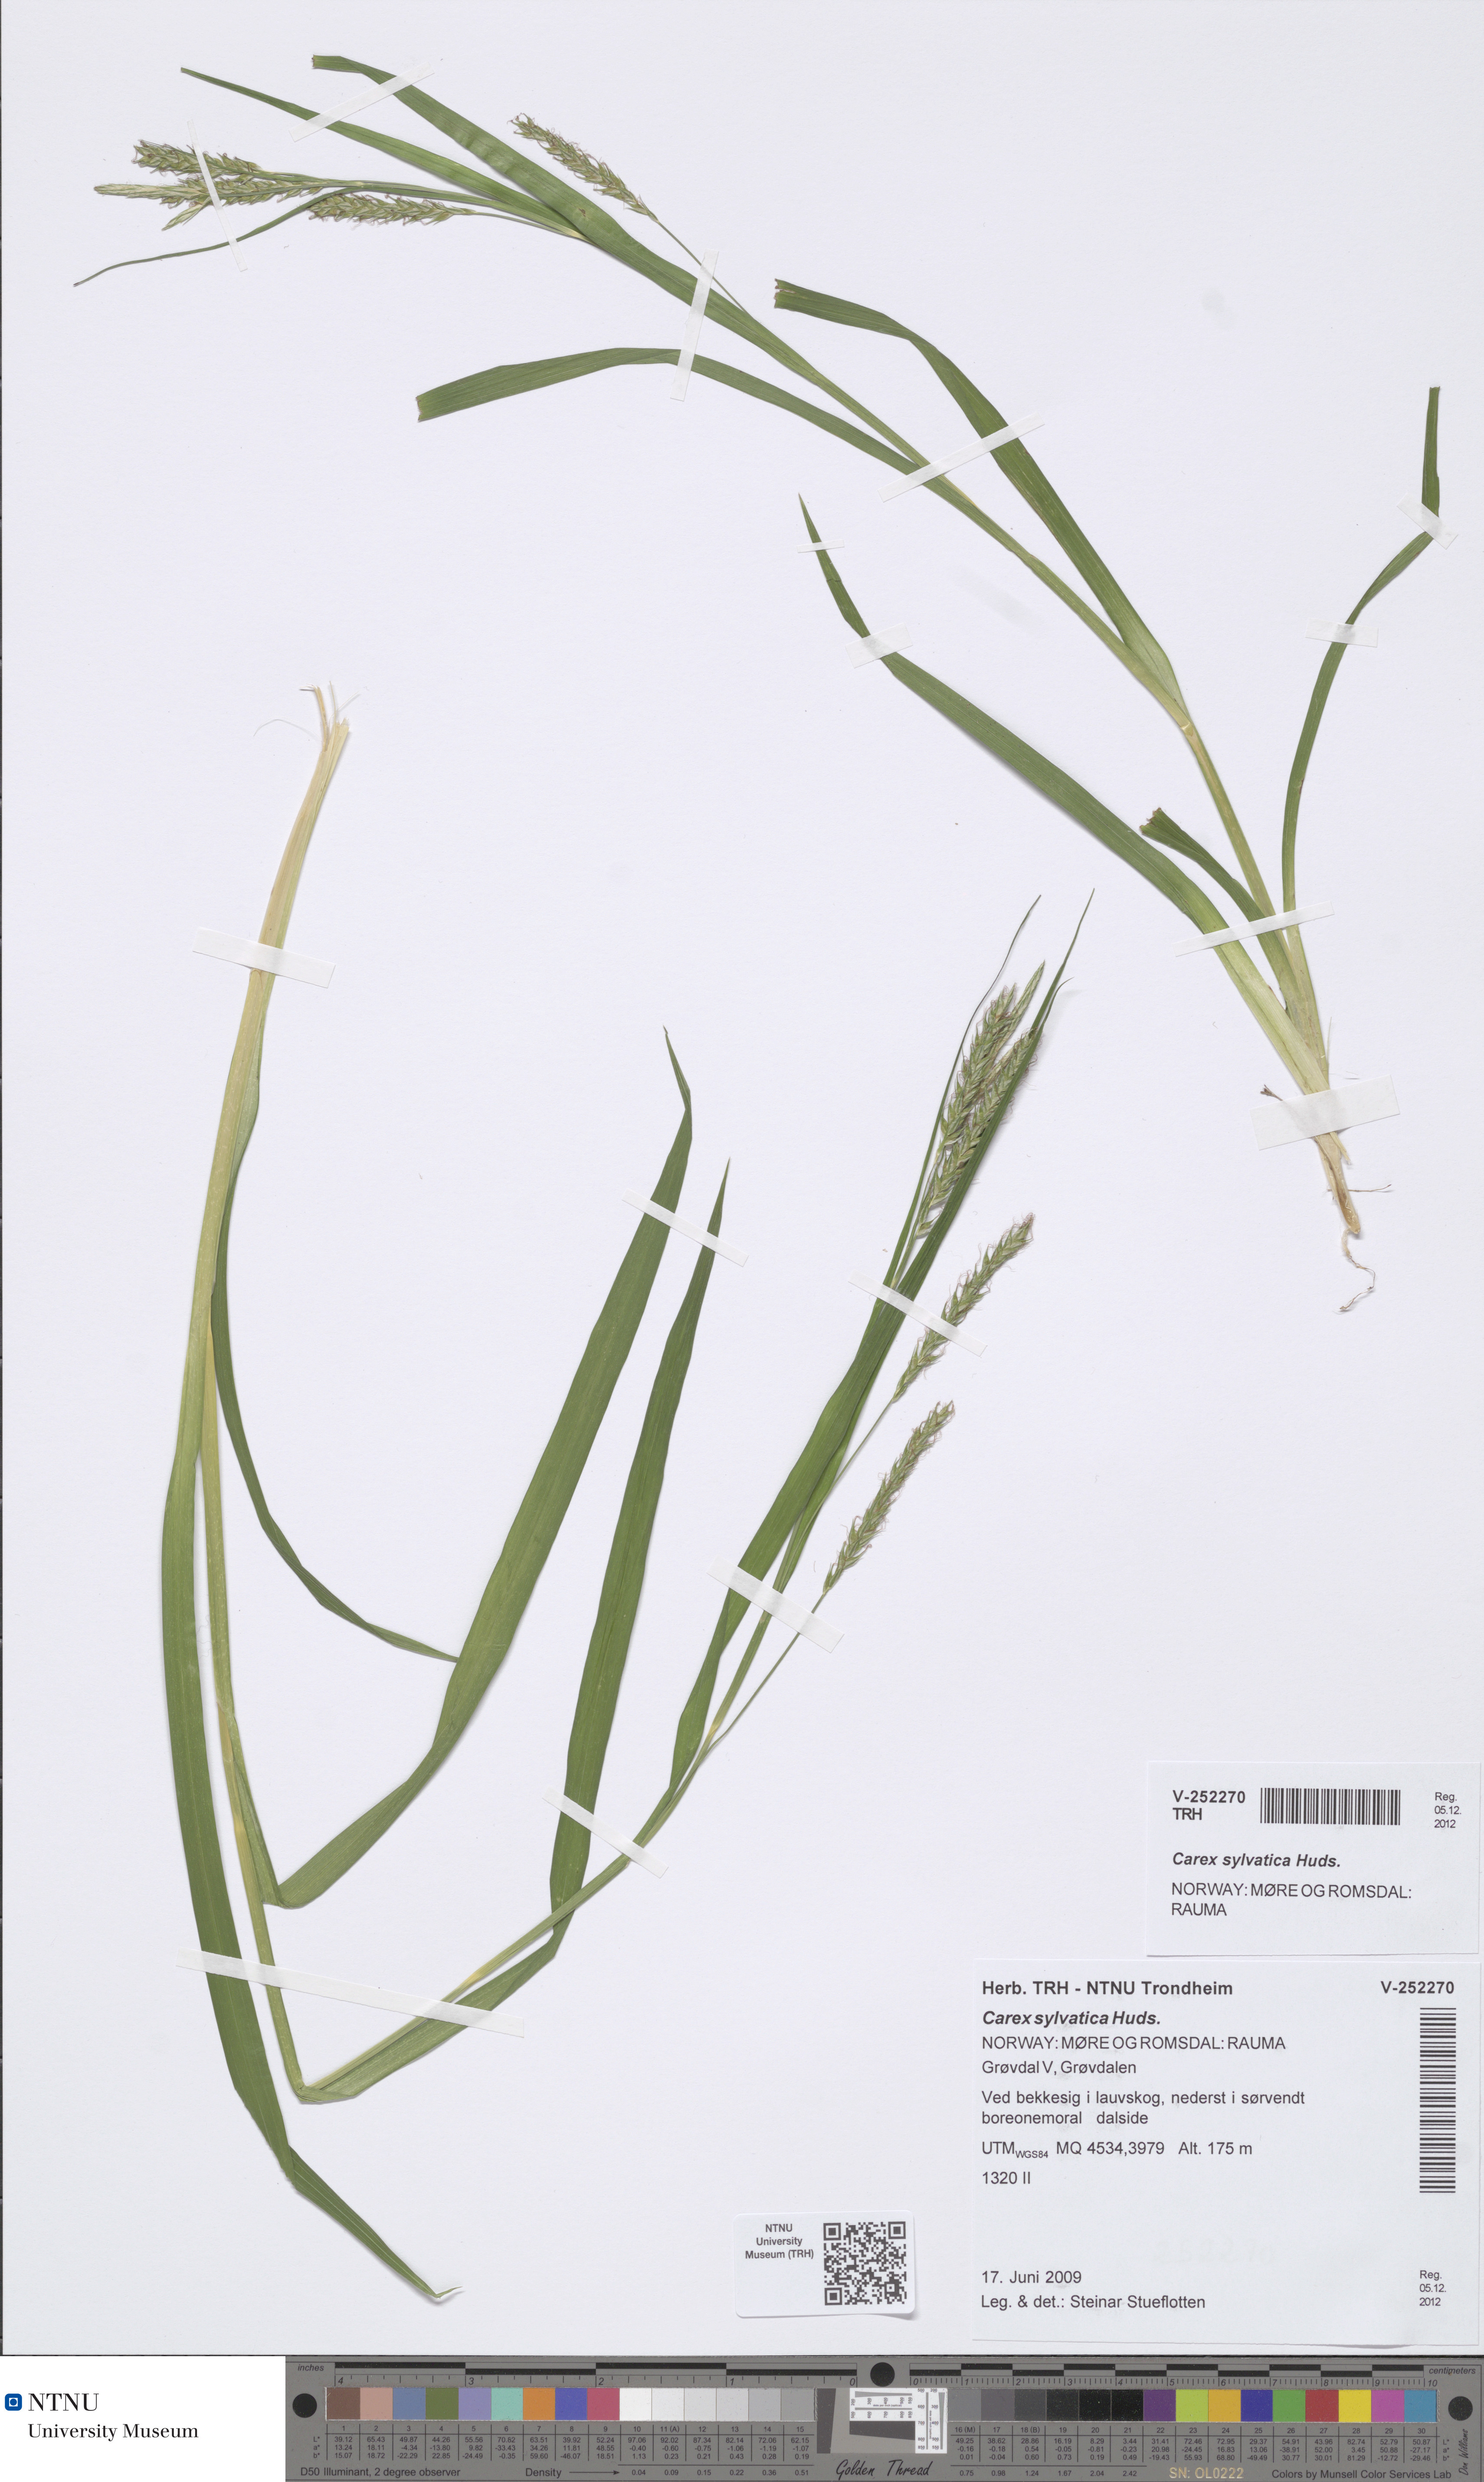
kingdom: Plantae
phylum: Tracheophyta
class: Liliopsida
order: Poales
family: Cyperaceae
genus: Carex
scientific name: Carex sylvatica
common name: Wood-sedge
